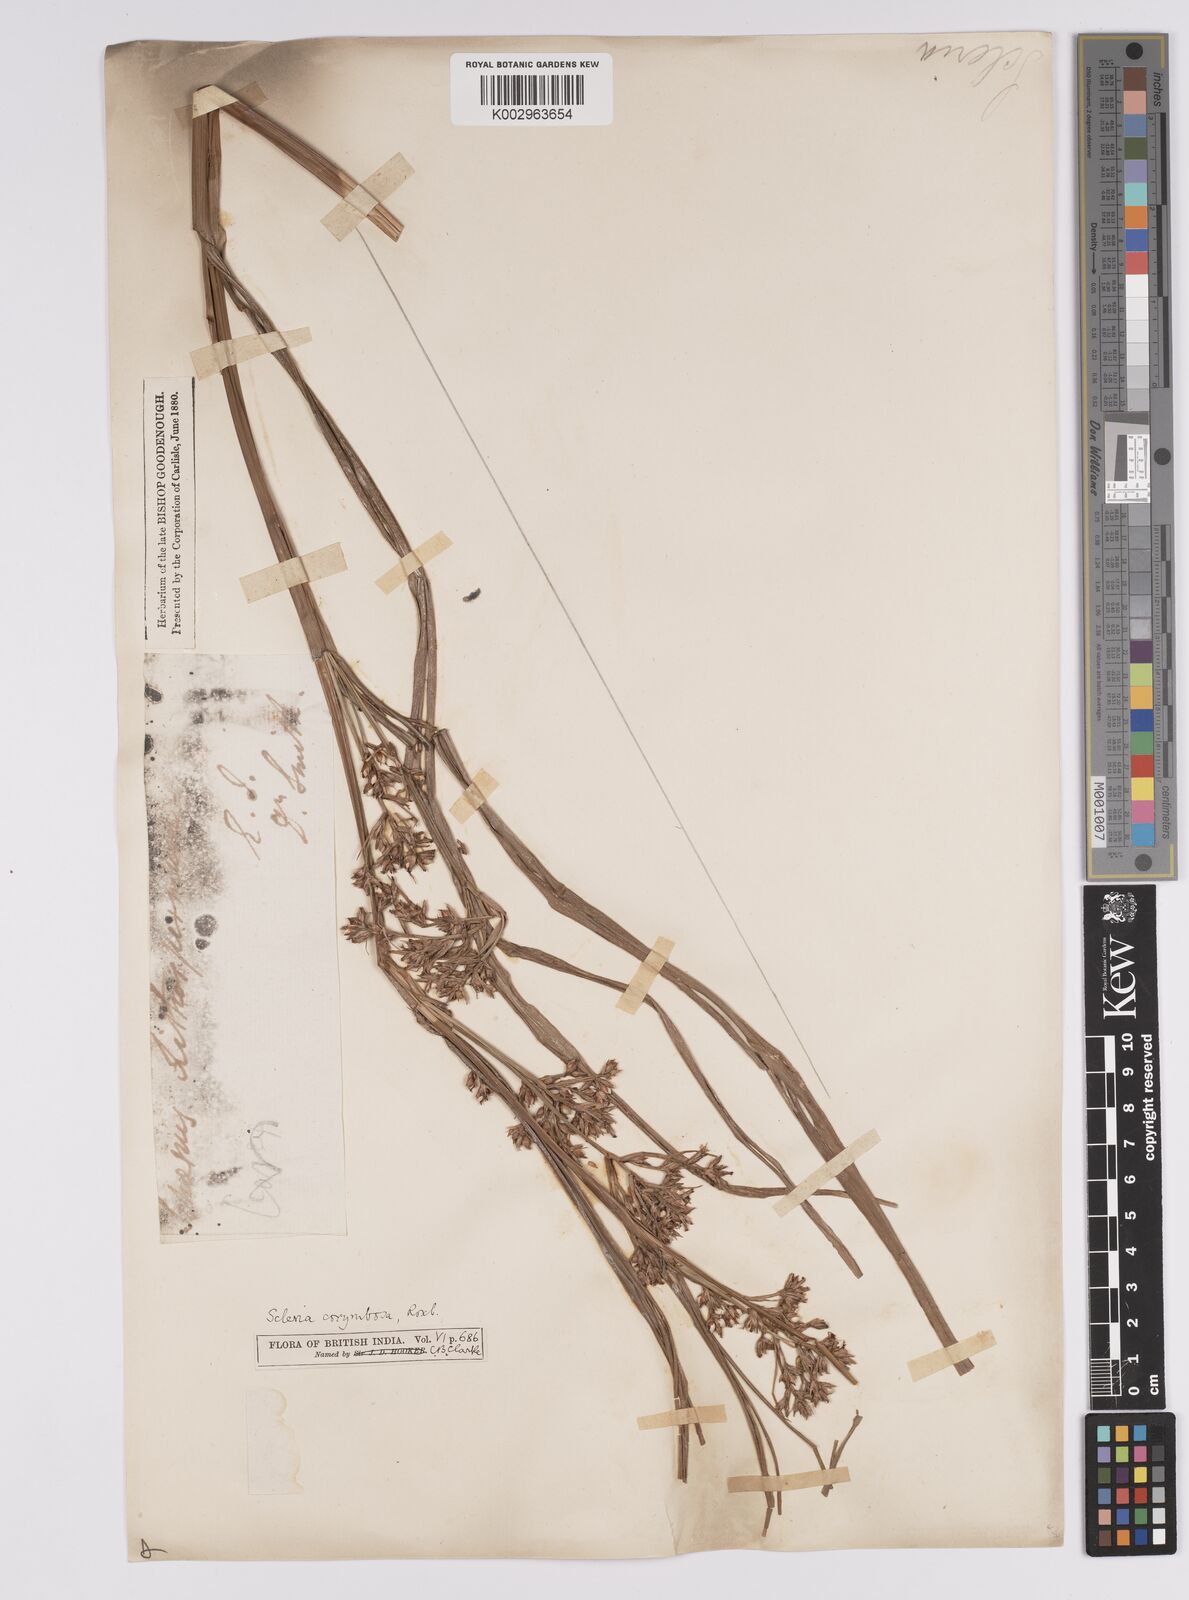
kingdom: Plantae
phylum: Tracheophyta
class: Liliopsida
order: Poales
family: Cyperaceae
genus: Scleria
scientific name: Scleria corymbosa
